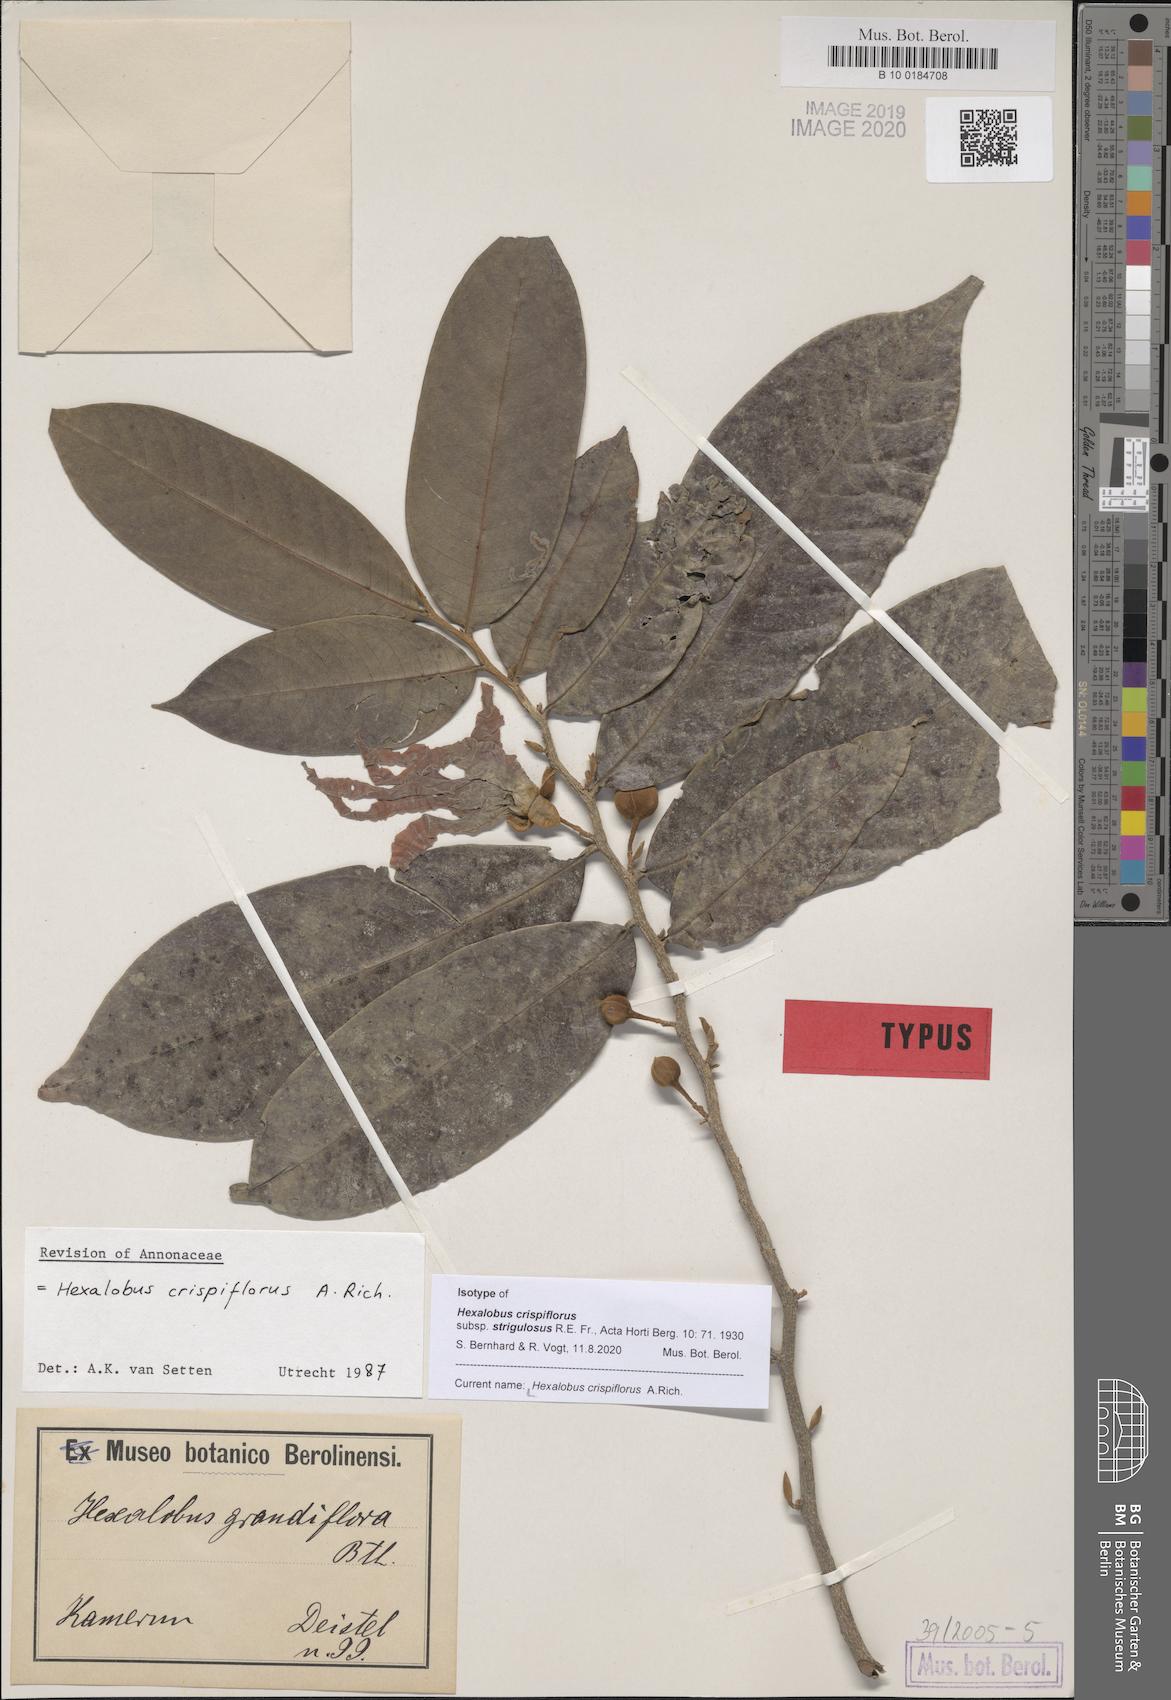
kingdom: Plantae
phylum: Tracheophyta
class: Magnoliopsida
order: Magnoliales
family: Annonaceae
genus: Hexalobus
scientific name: Hexalobus crispiflorus
